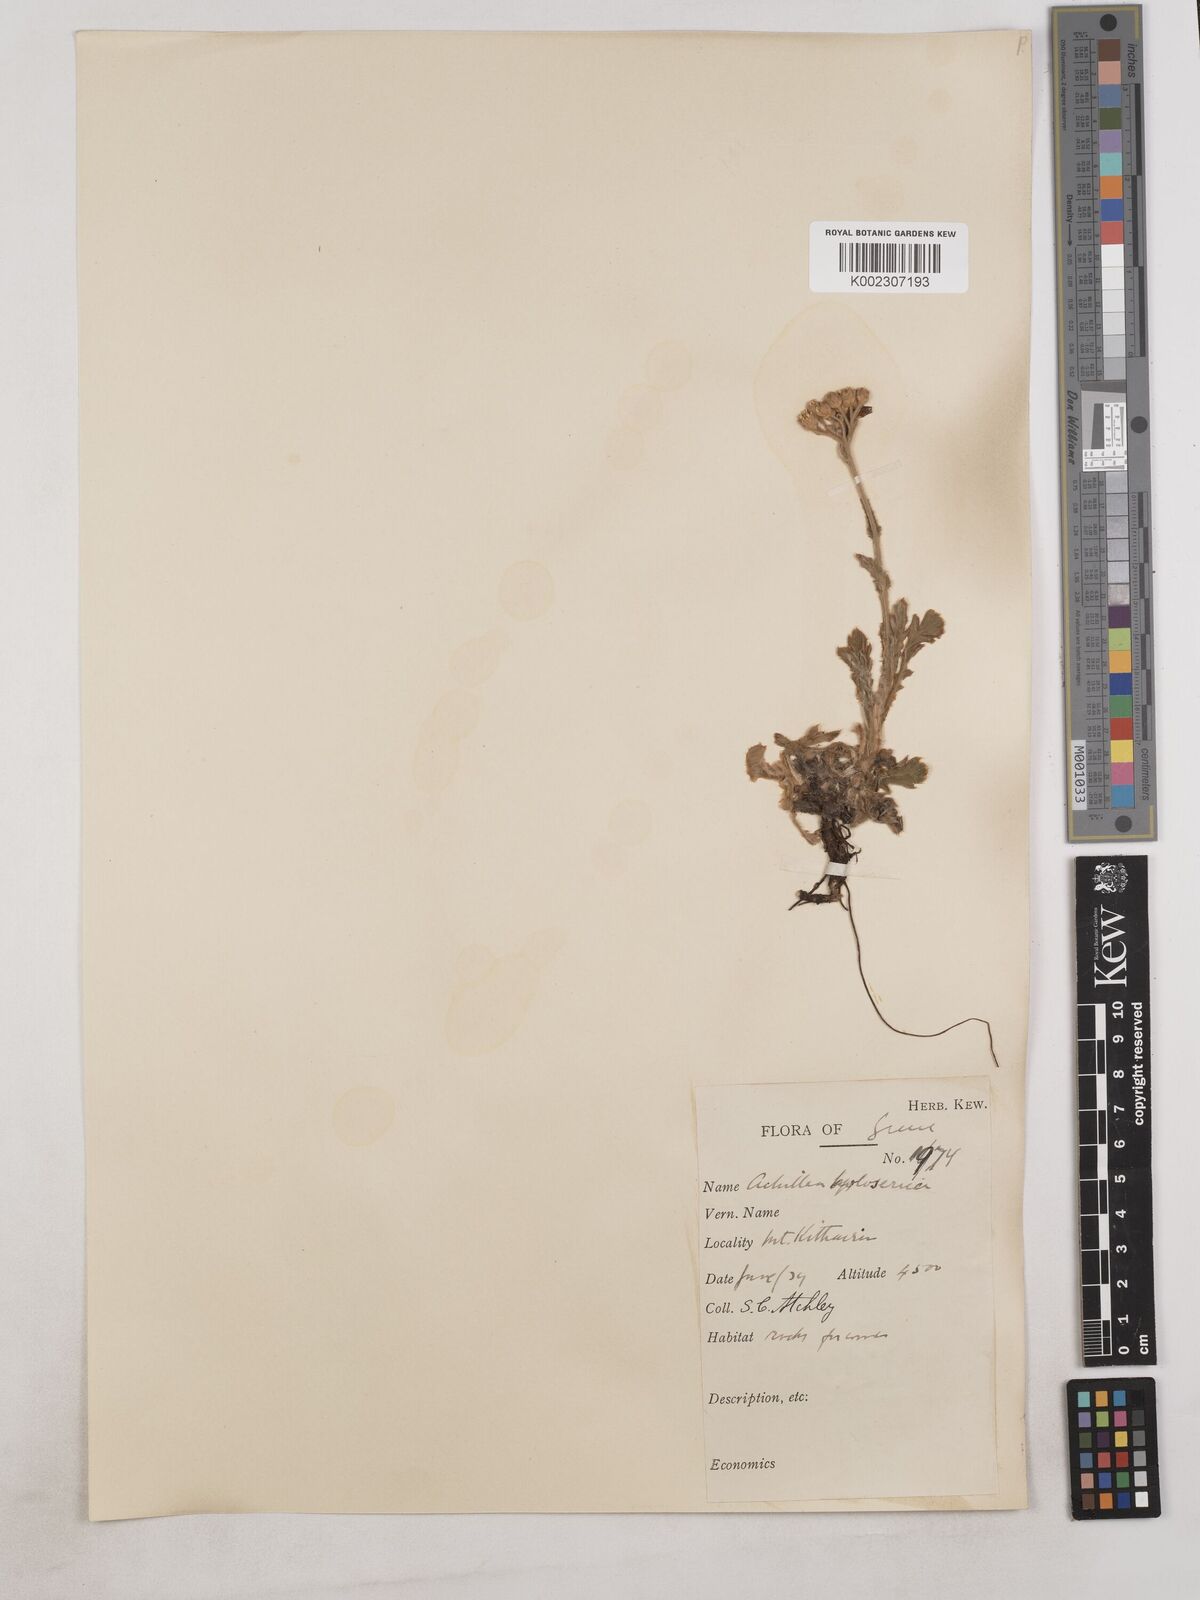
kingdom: Plantae
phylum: Tracheophyta
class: Magnoliopsida
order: Asterales
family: Asteraceae
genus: Achillea
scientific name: Achillea holosericea
